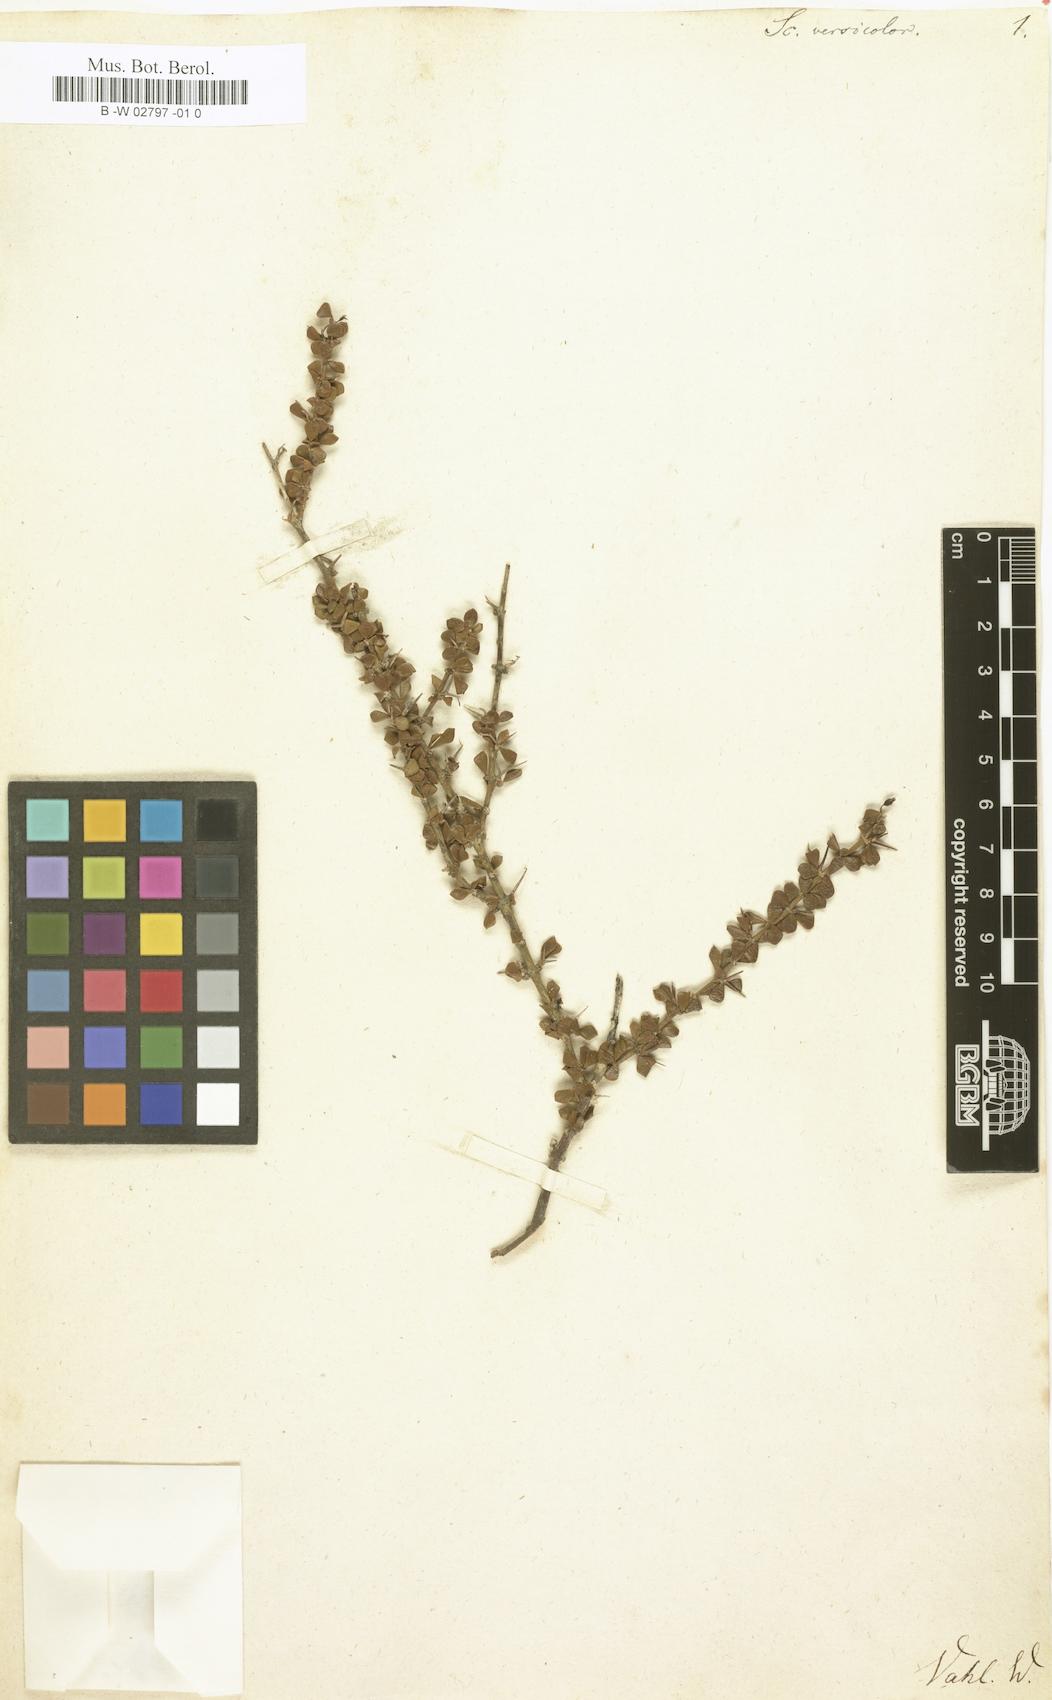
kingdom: Plantae
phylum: Tracheophyta
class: Magnoliopsida
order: Gentianales
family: Rubiaceae
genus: Scolosanthus
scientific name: Scolosanthus versicolor
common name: Puerto rico devilbrush
